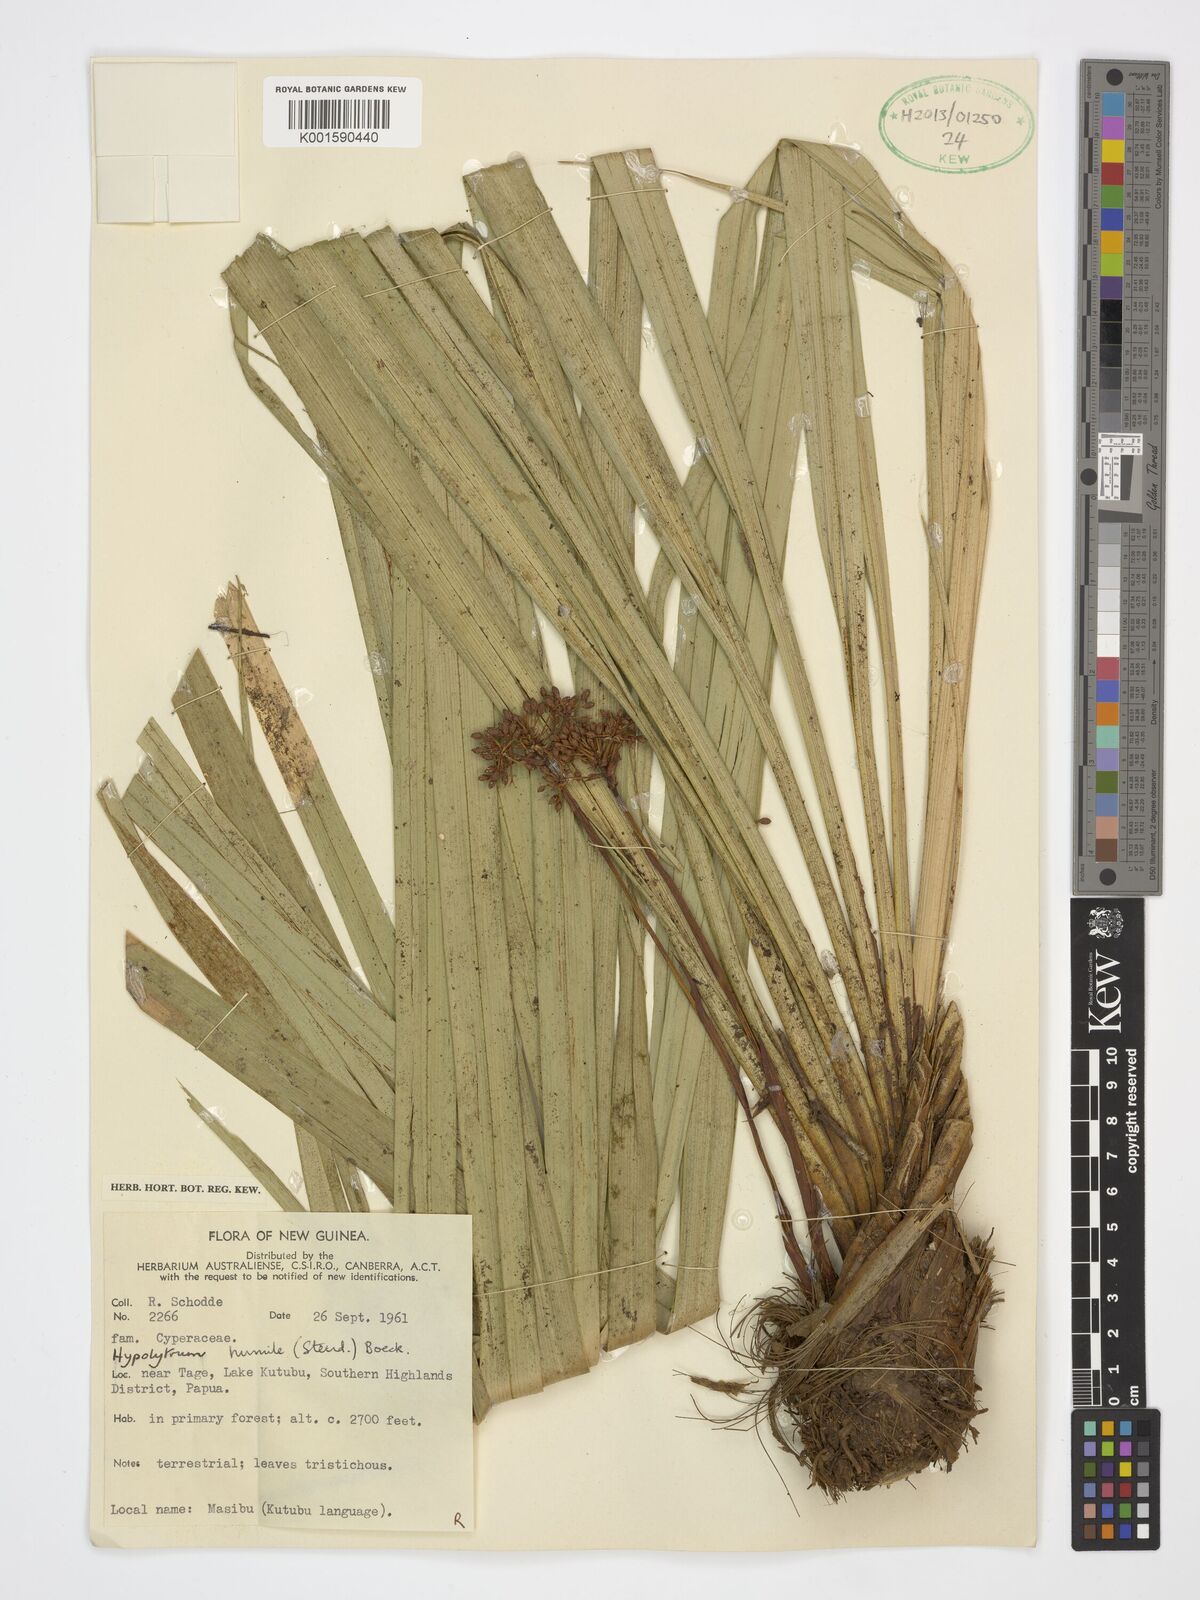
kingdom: Plantae
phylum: Tracheophyta
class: Liliopsida
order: Poales
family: Cyperaceae
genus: Hypolytrum
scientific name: Hypolytrum humile
